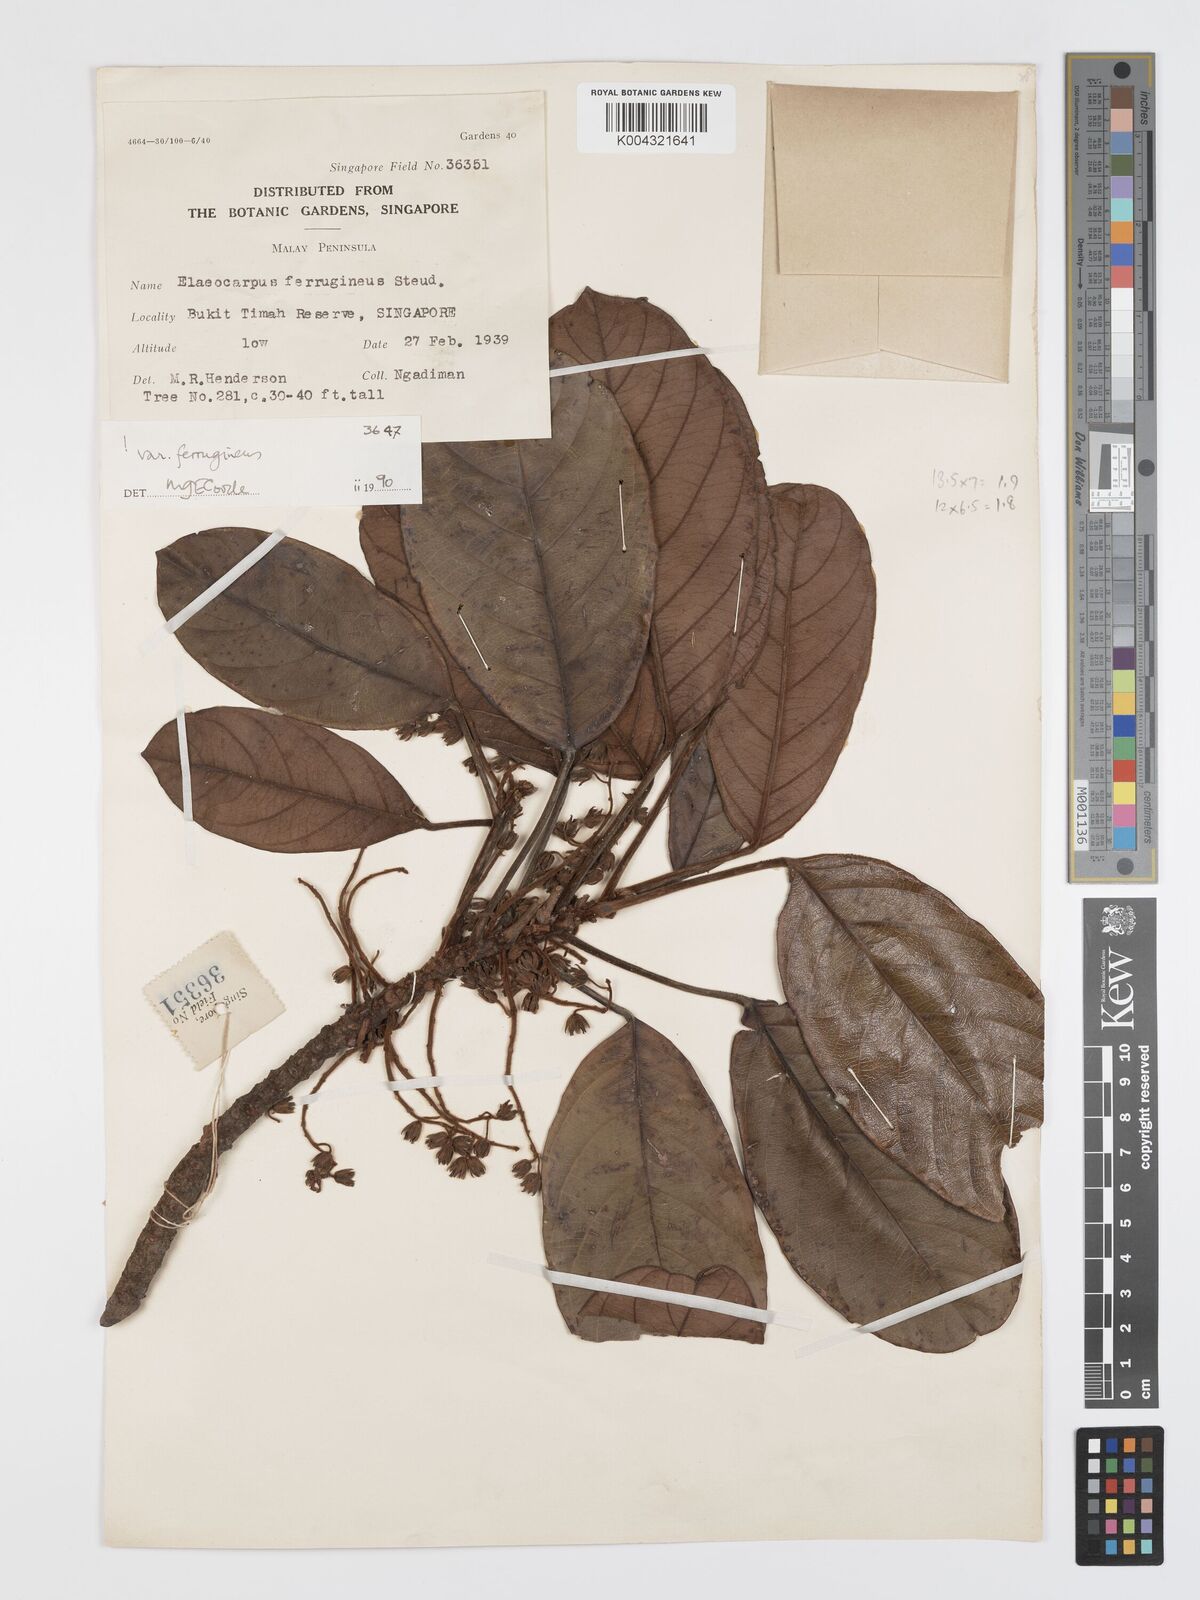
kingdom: Plantae
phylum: Tracheophyta
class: Magnoliopsida
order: Oxalidales
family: Elaeocarpaceae
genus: Elaeocarpus
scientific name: Elaeocarpus ferrugineus
